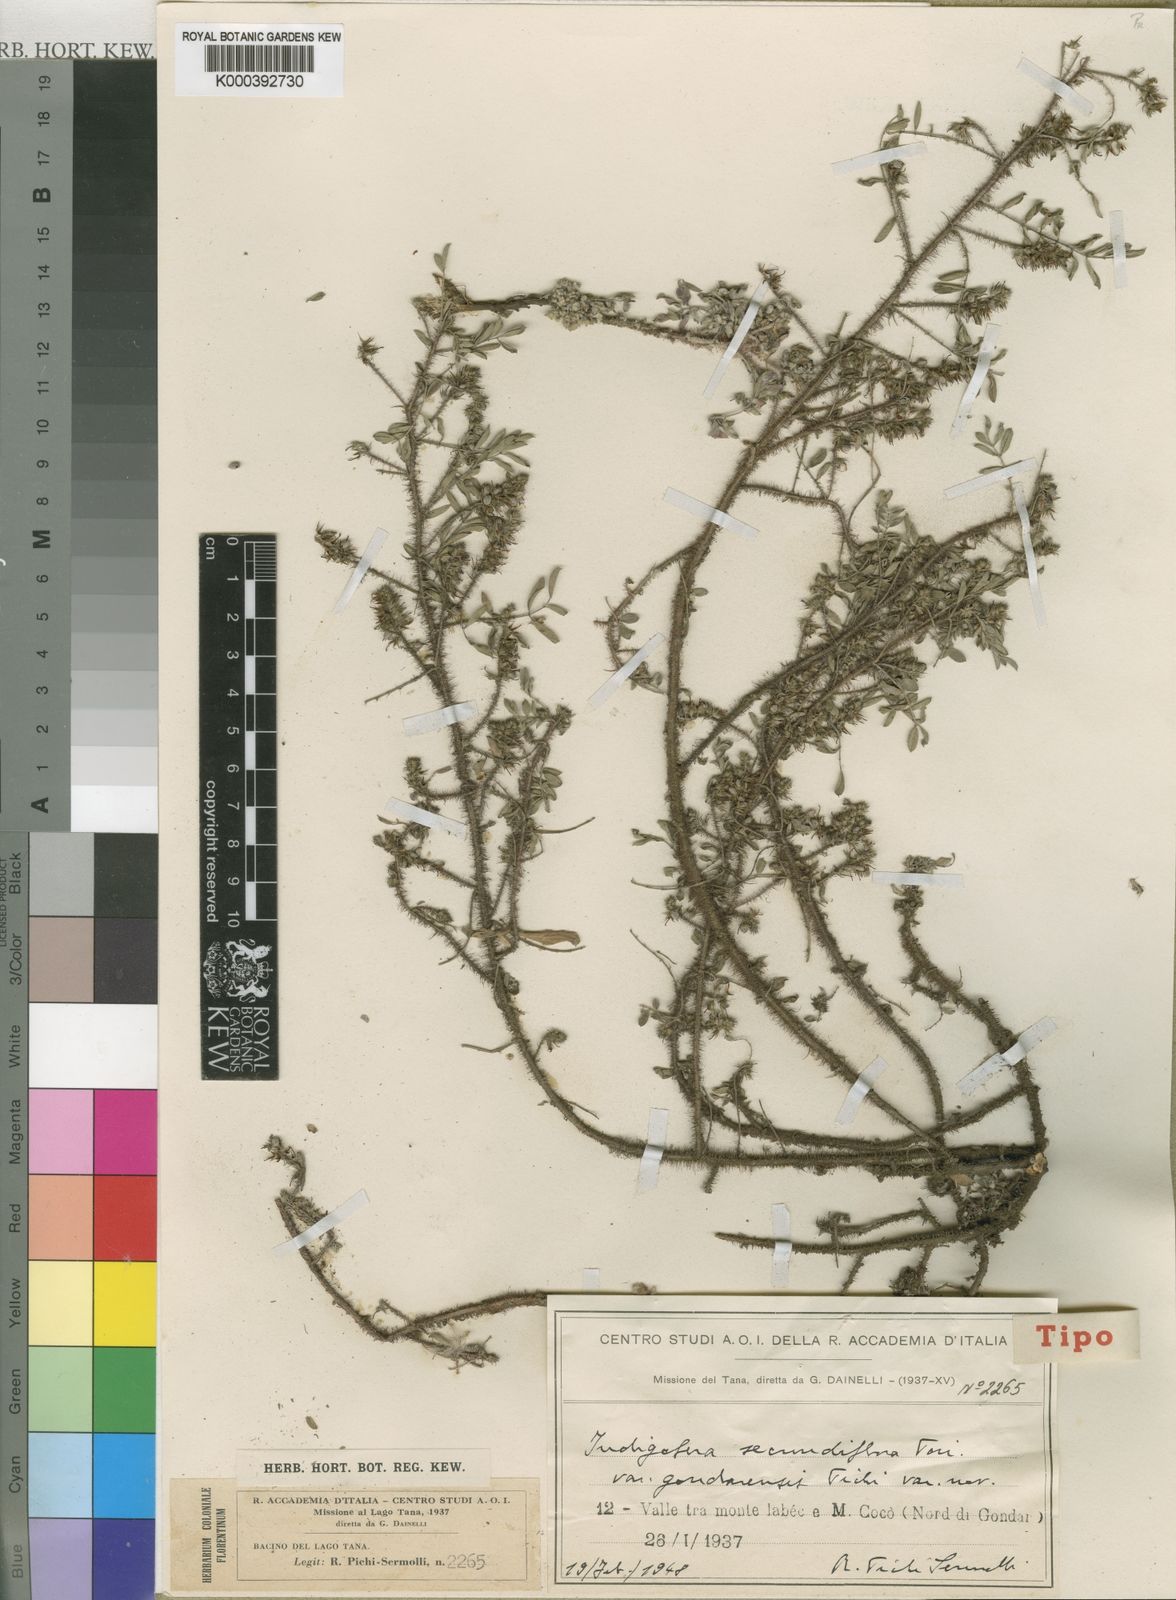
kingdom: Plantae
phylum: Tracheophyta
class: Magnoliopsida
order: Fabales
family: Fabaceae
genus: Indigofera
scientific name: Indigofera secundiflora
